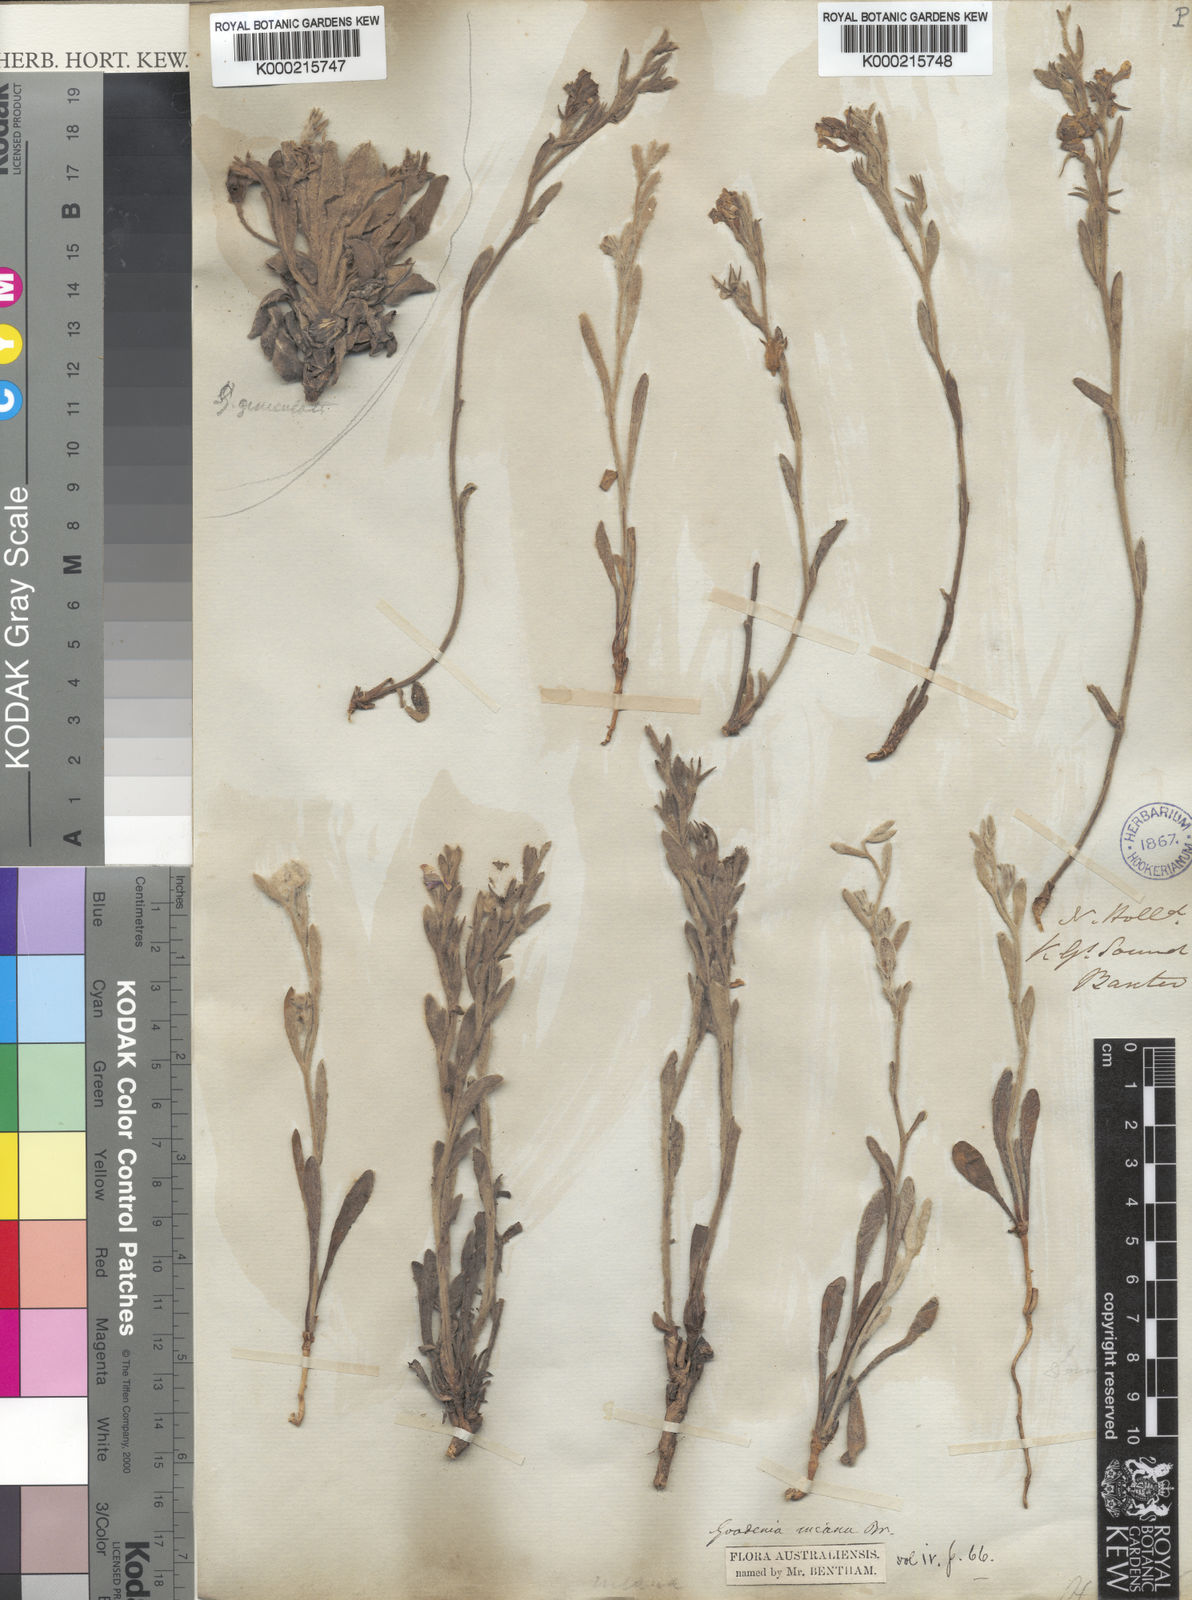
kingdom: Plantae
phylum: Tracheophyta
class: Magnoliopsida
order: Asterales
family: Goodeniaceae
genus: Goodenia
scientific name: Goodenia incana
